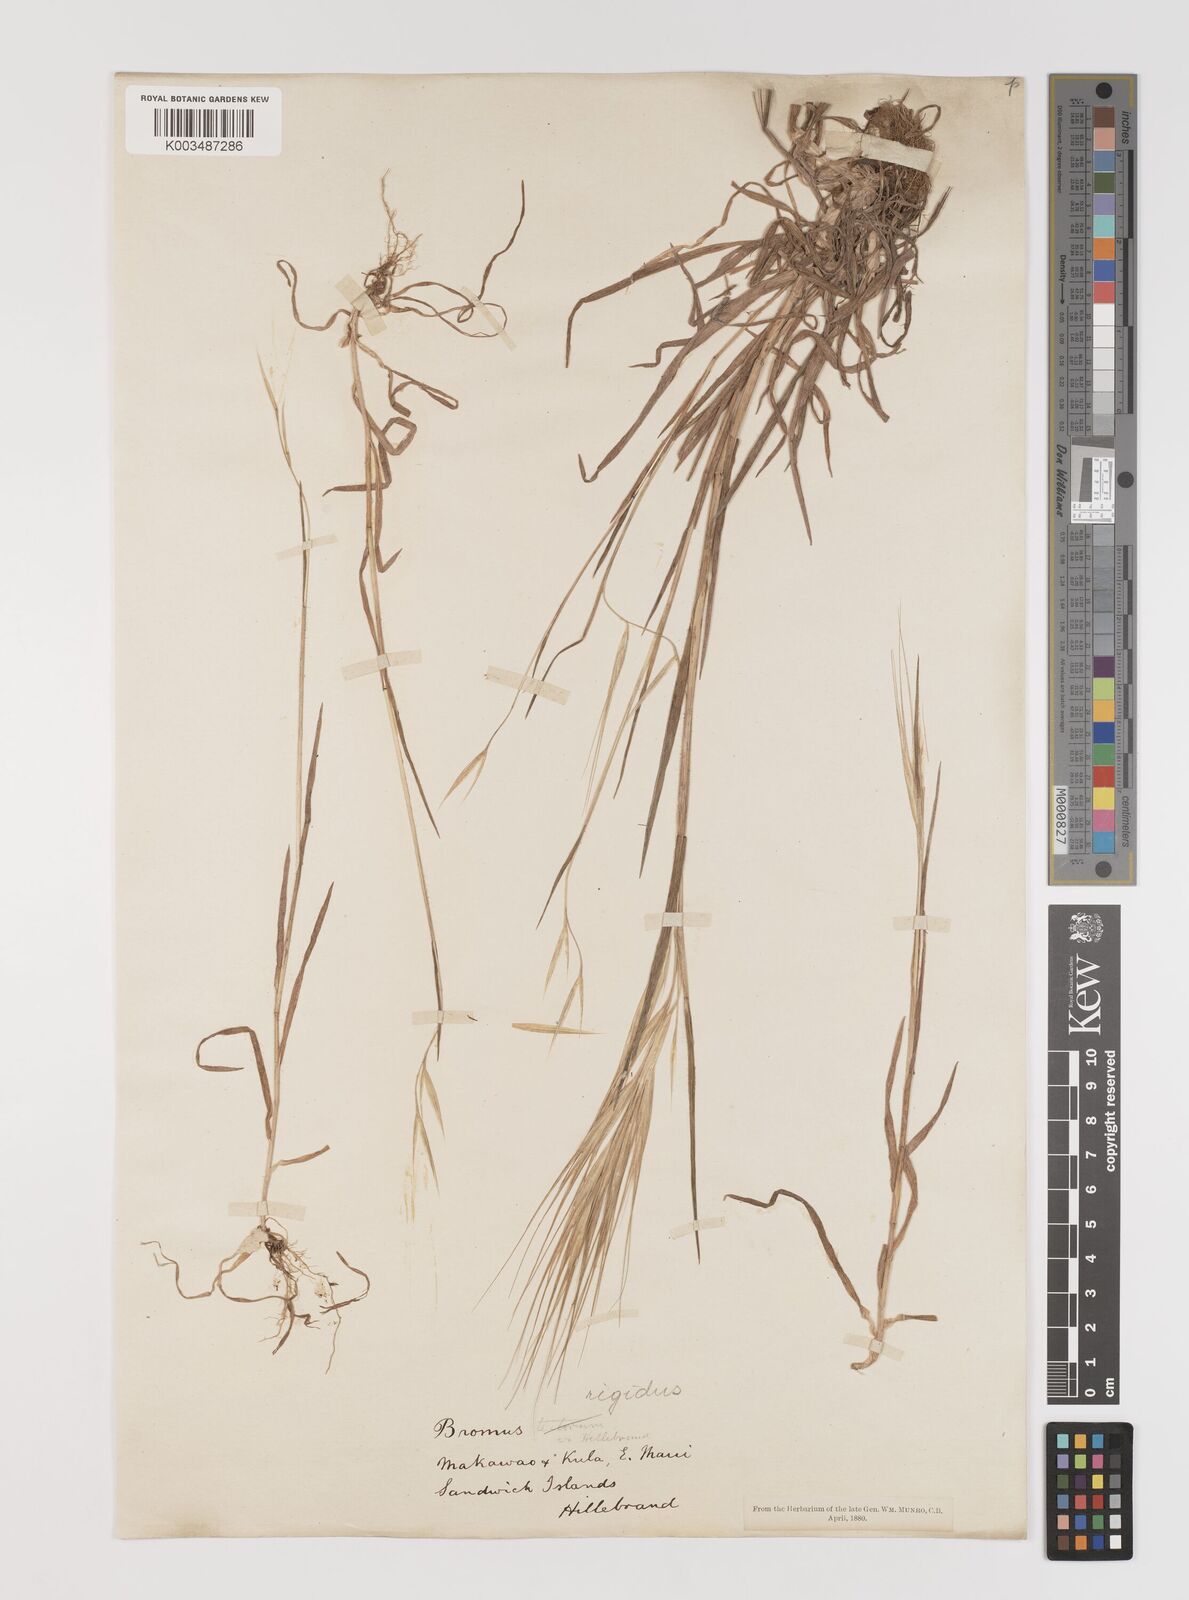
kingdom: Plantae
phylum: Tracheophyta
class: Liliopsida
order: Poales
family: Poaceae
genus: Bromus
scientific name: Bromus
